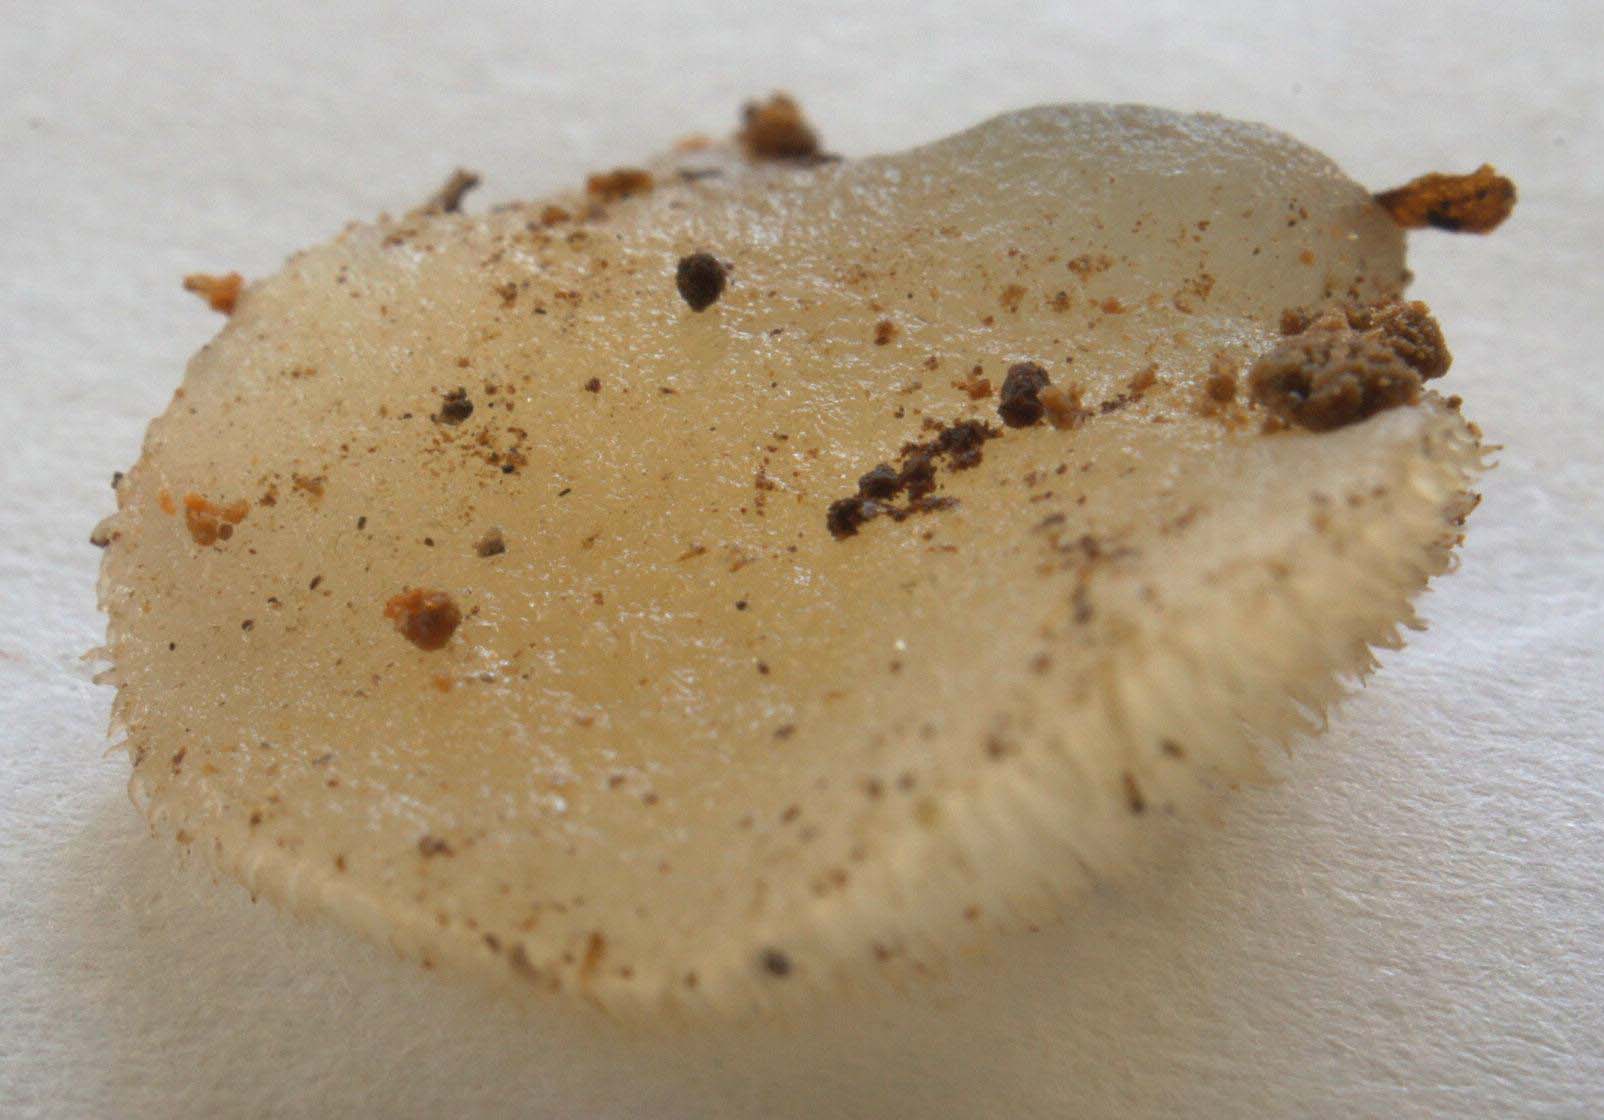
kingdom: Fungi
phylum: Basidiomycota
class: Agaricomycetes
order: Auriculariales
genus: Pseudohydnum
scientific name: Pseudohydnum gelatinosum
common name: bævretand
